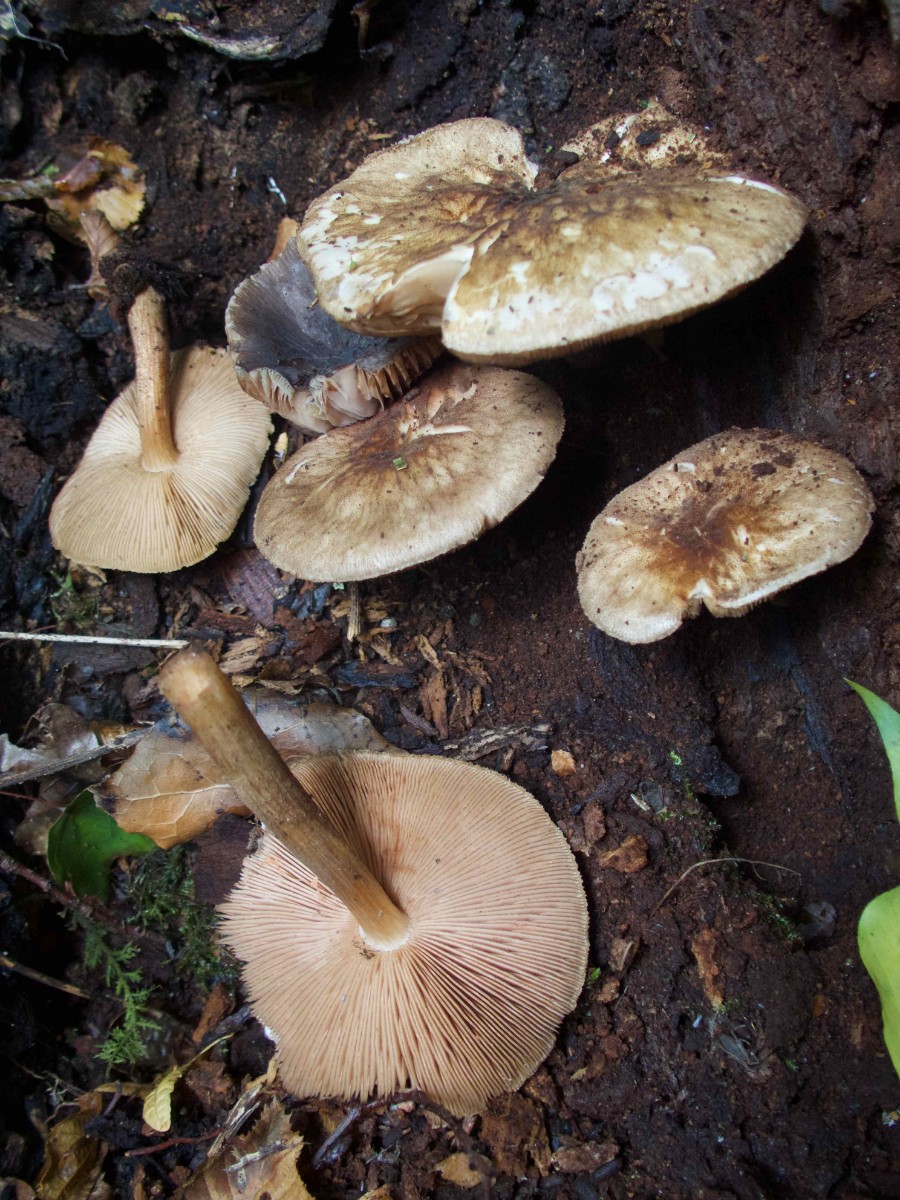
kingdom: Fungi
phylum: Basidiomycota
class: Agaricomycetes
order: Agaricales
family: Pluteaceae
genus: Pluteus
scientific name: Pluteus umbrosus
